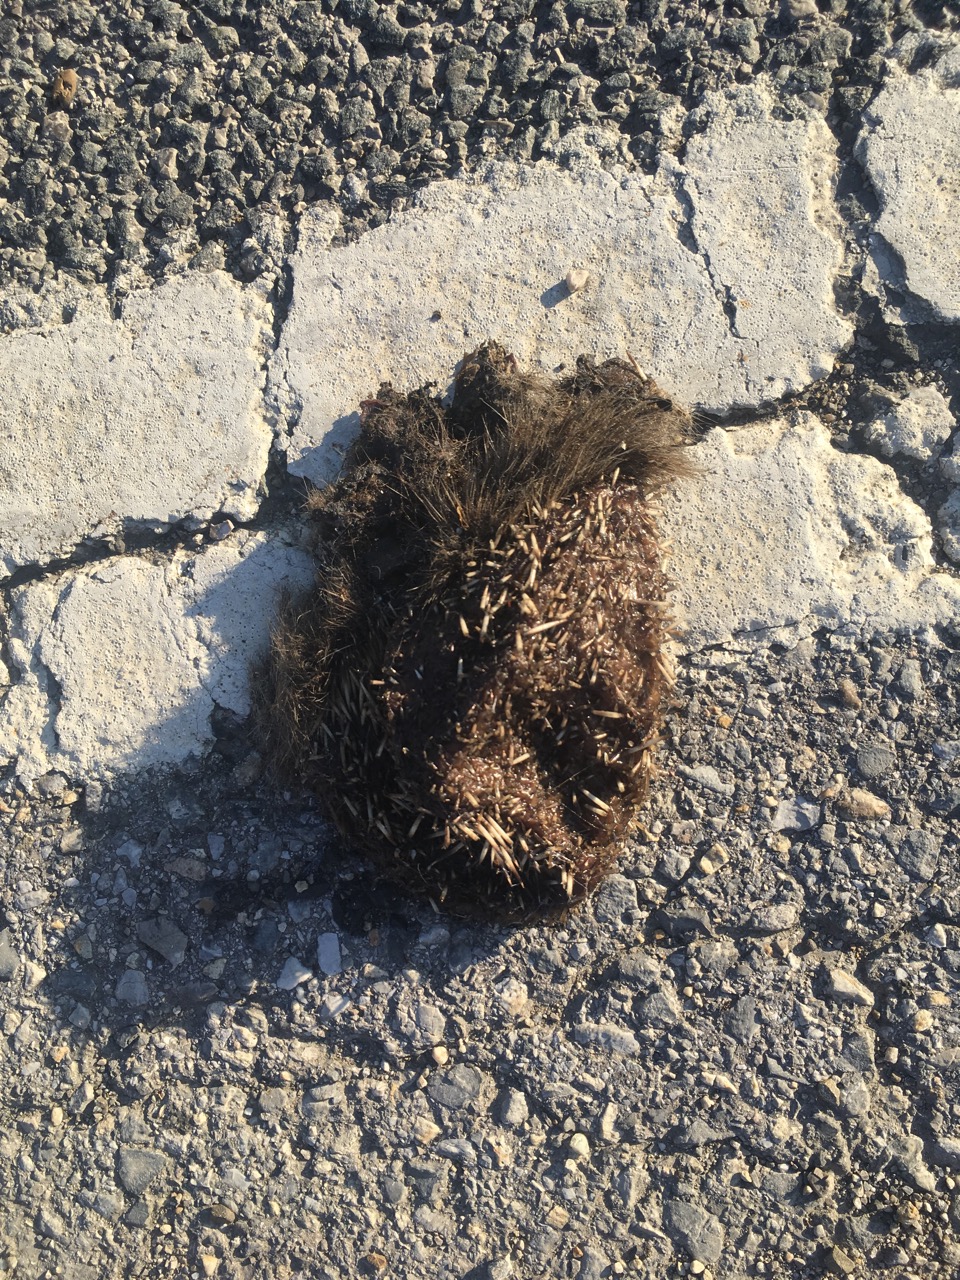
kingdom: Animalia
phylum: Chordata
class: Mammalia
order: Erinaceomorpha
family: Erinaceidae
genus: Erinaceus
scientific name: Erinaceus
